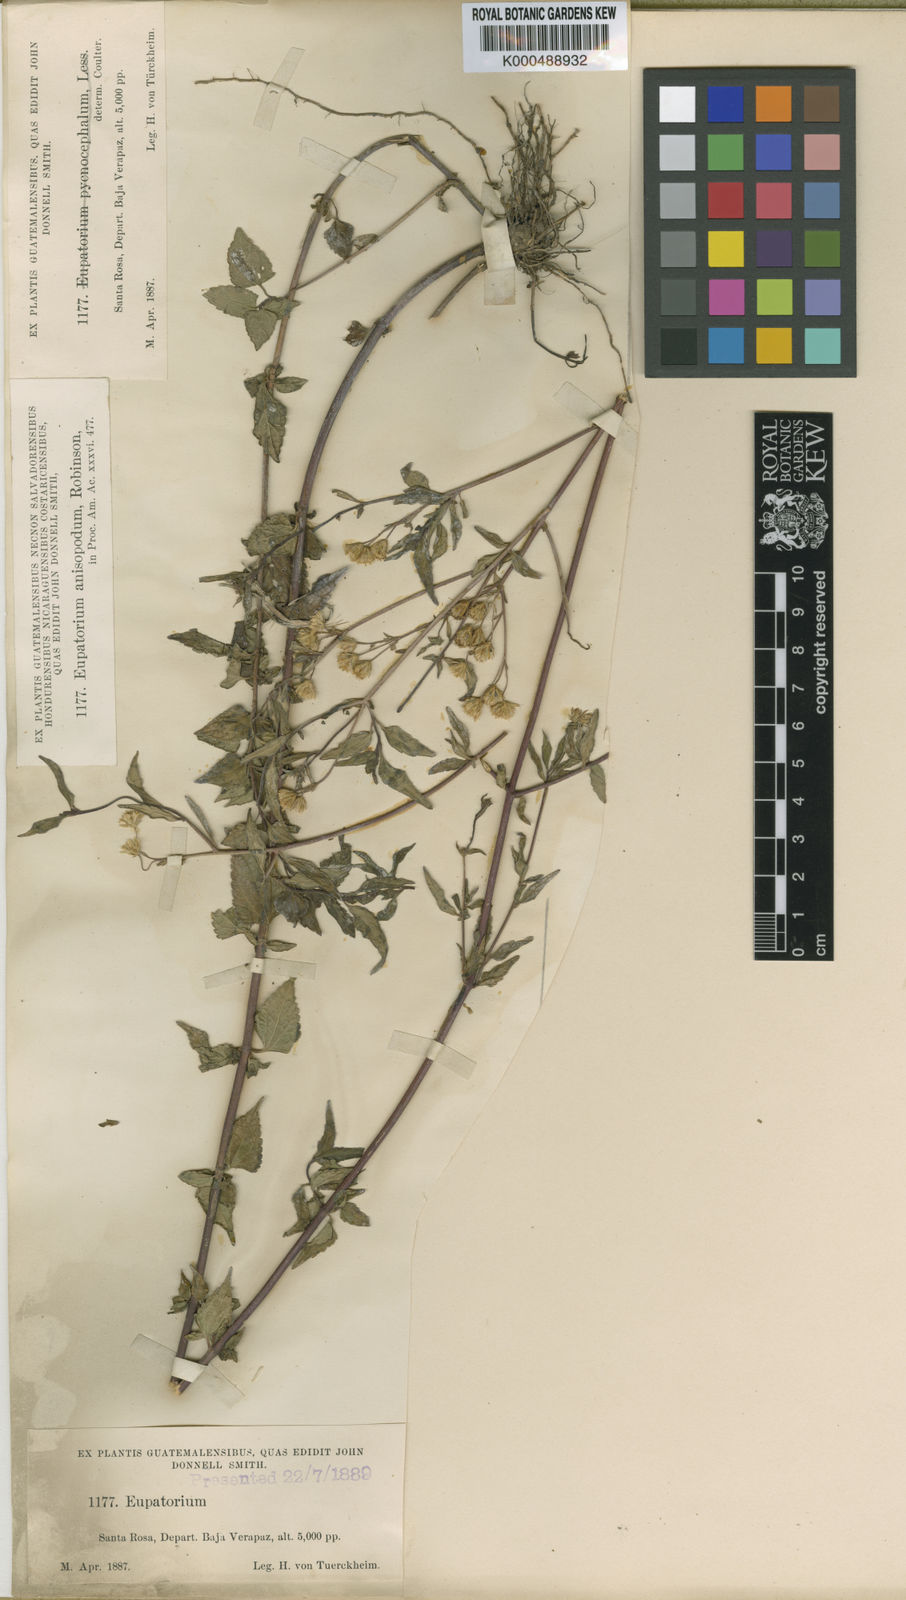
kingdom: Plantae
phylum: Tracheophyta
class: Magnoliopsida
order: Asterales
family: Asteraceae
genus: Fleischmannia
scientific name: Fleischmannia anisopoda
